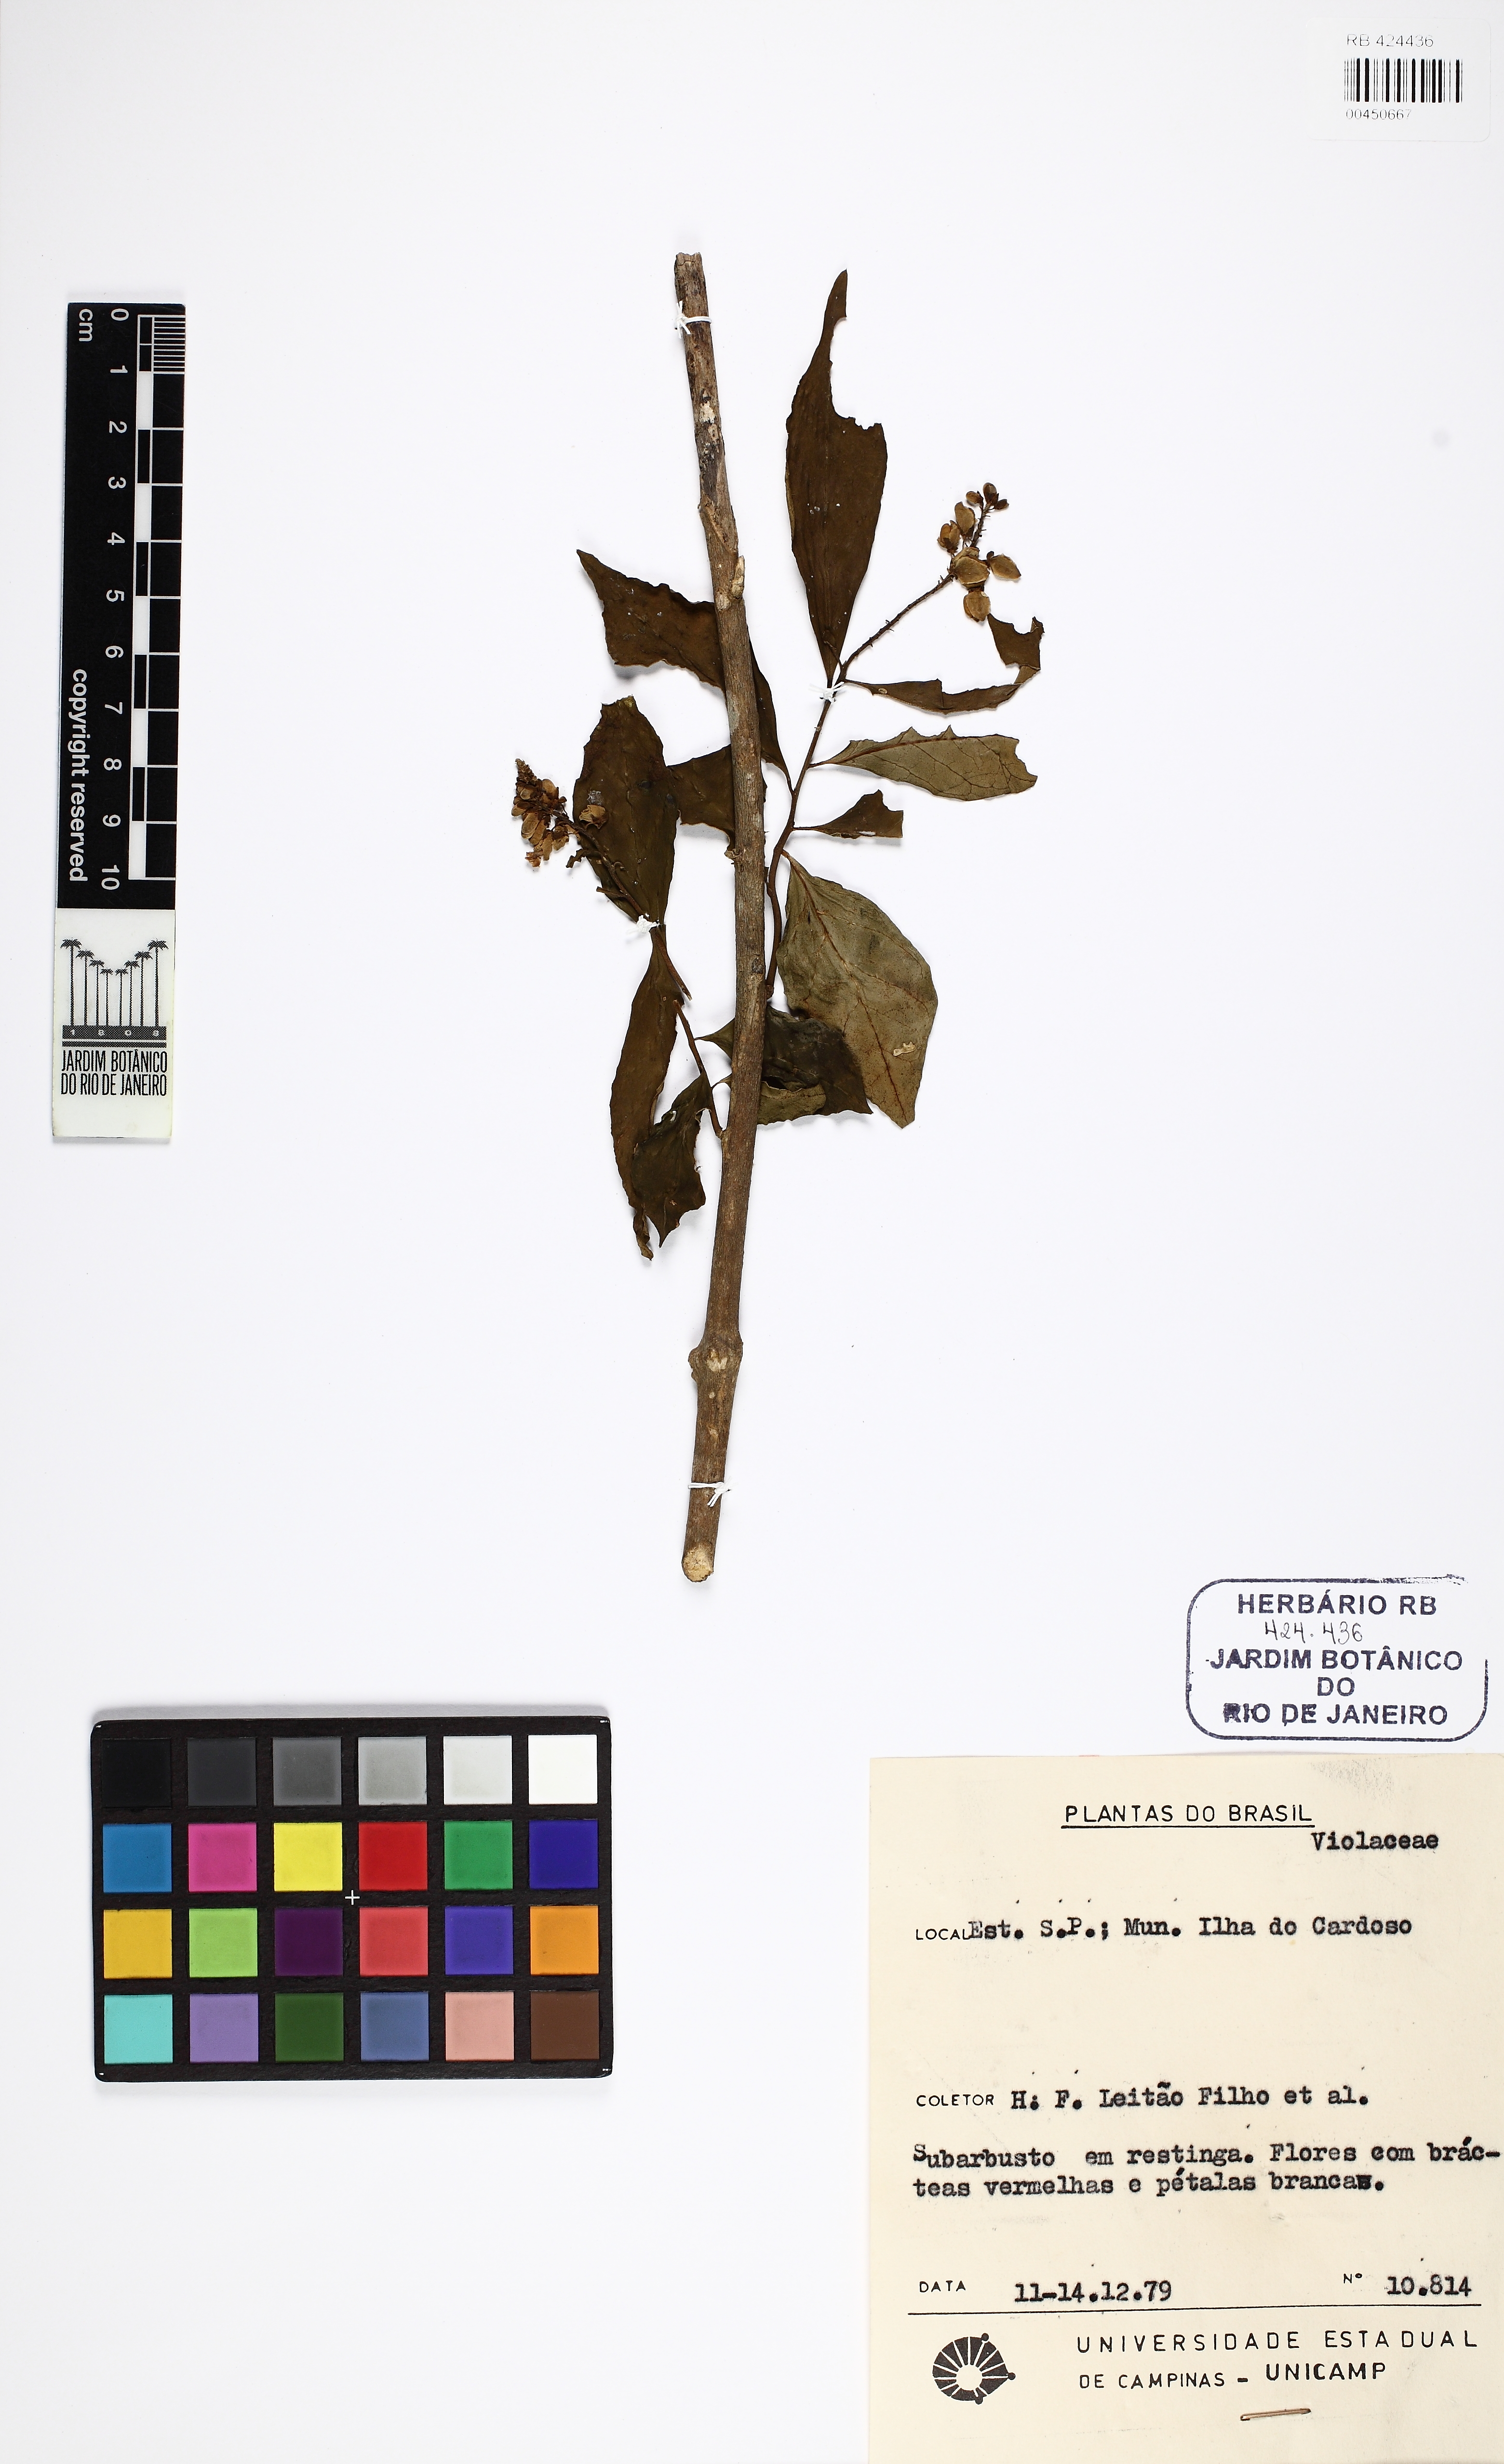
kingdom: Plantae
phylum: Tracheophyta
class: Magnoliopsida
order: Fabales
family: Polygalaceae
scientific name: Polygalaceae
